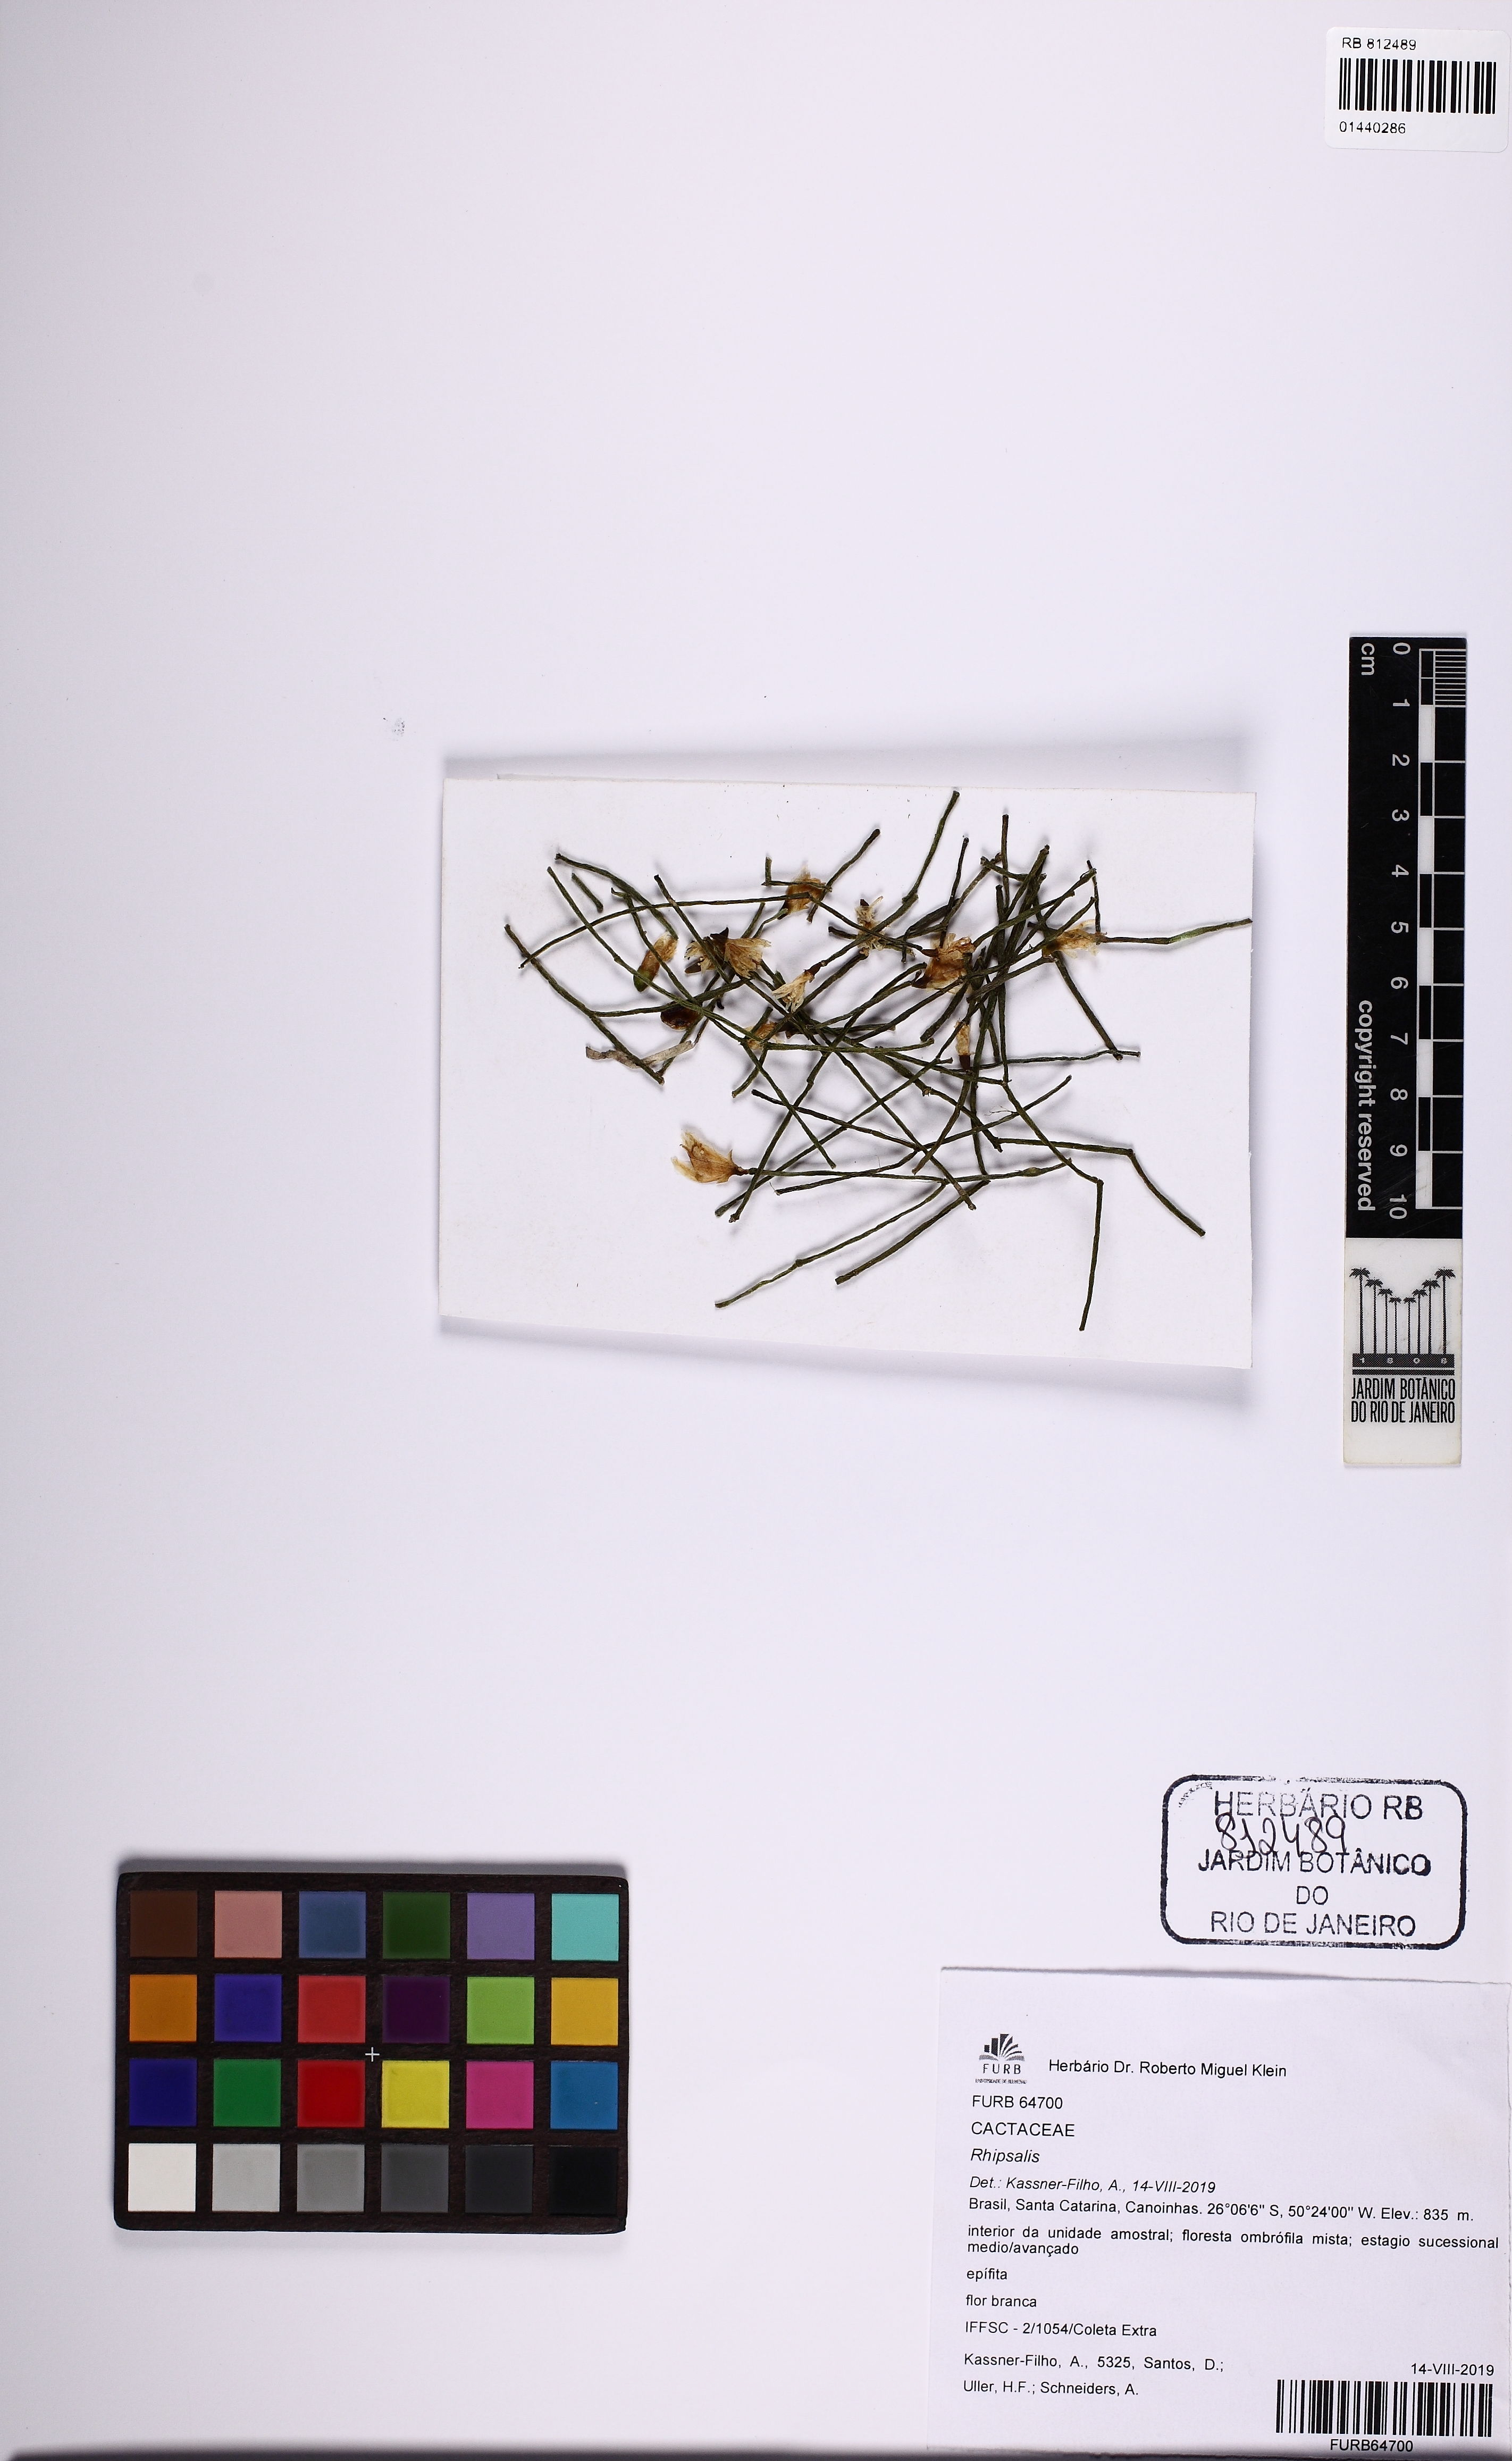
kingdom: Plantae
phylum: Tracheophyta
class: Magnoliopsida
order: Caryophyllales
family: Cactaceae
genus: Rhipsalis
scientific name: Rhipsalis campos-portoana
